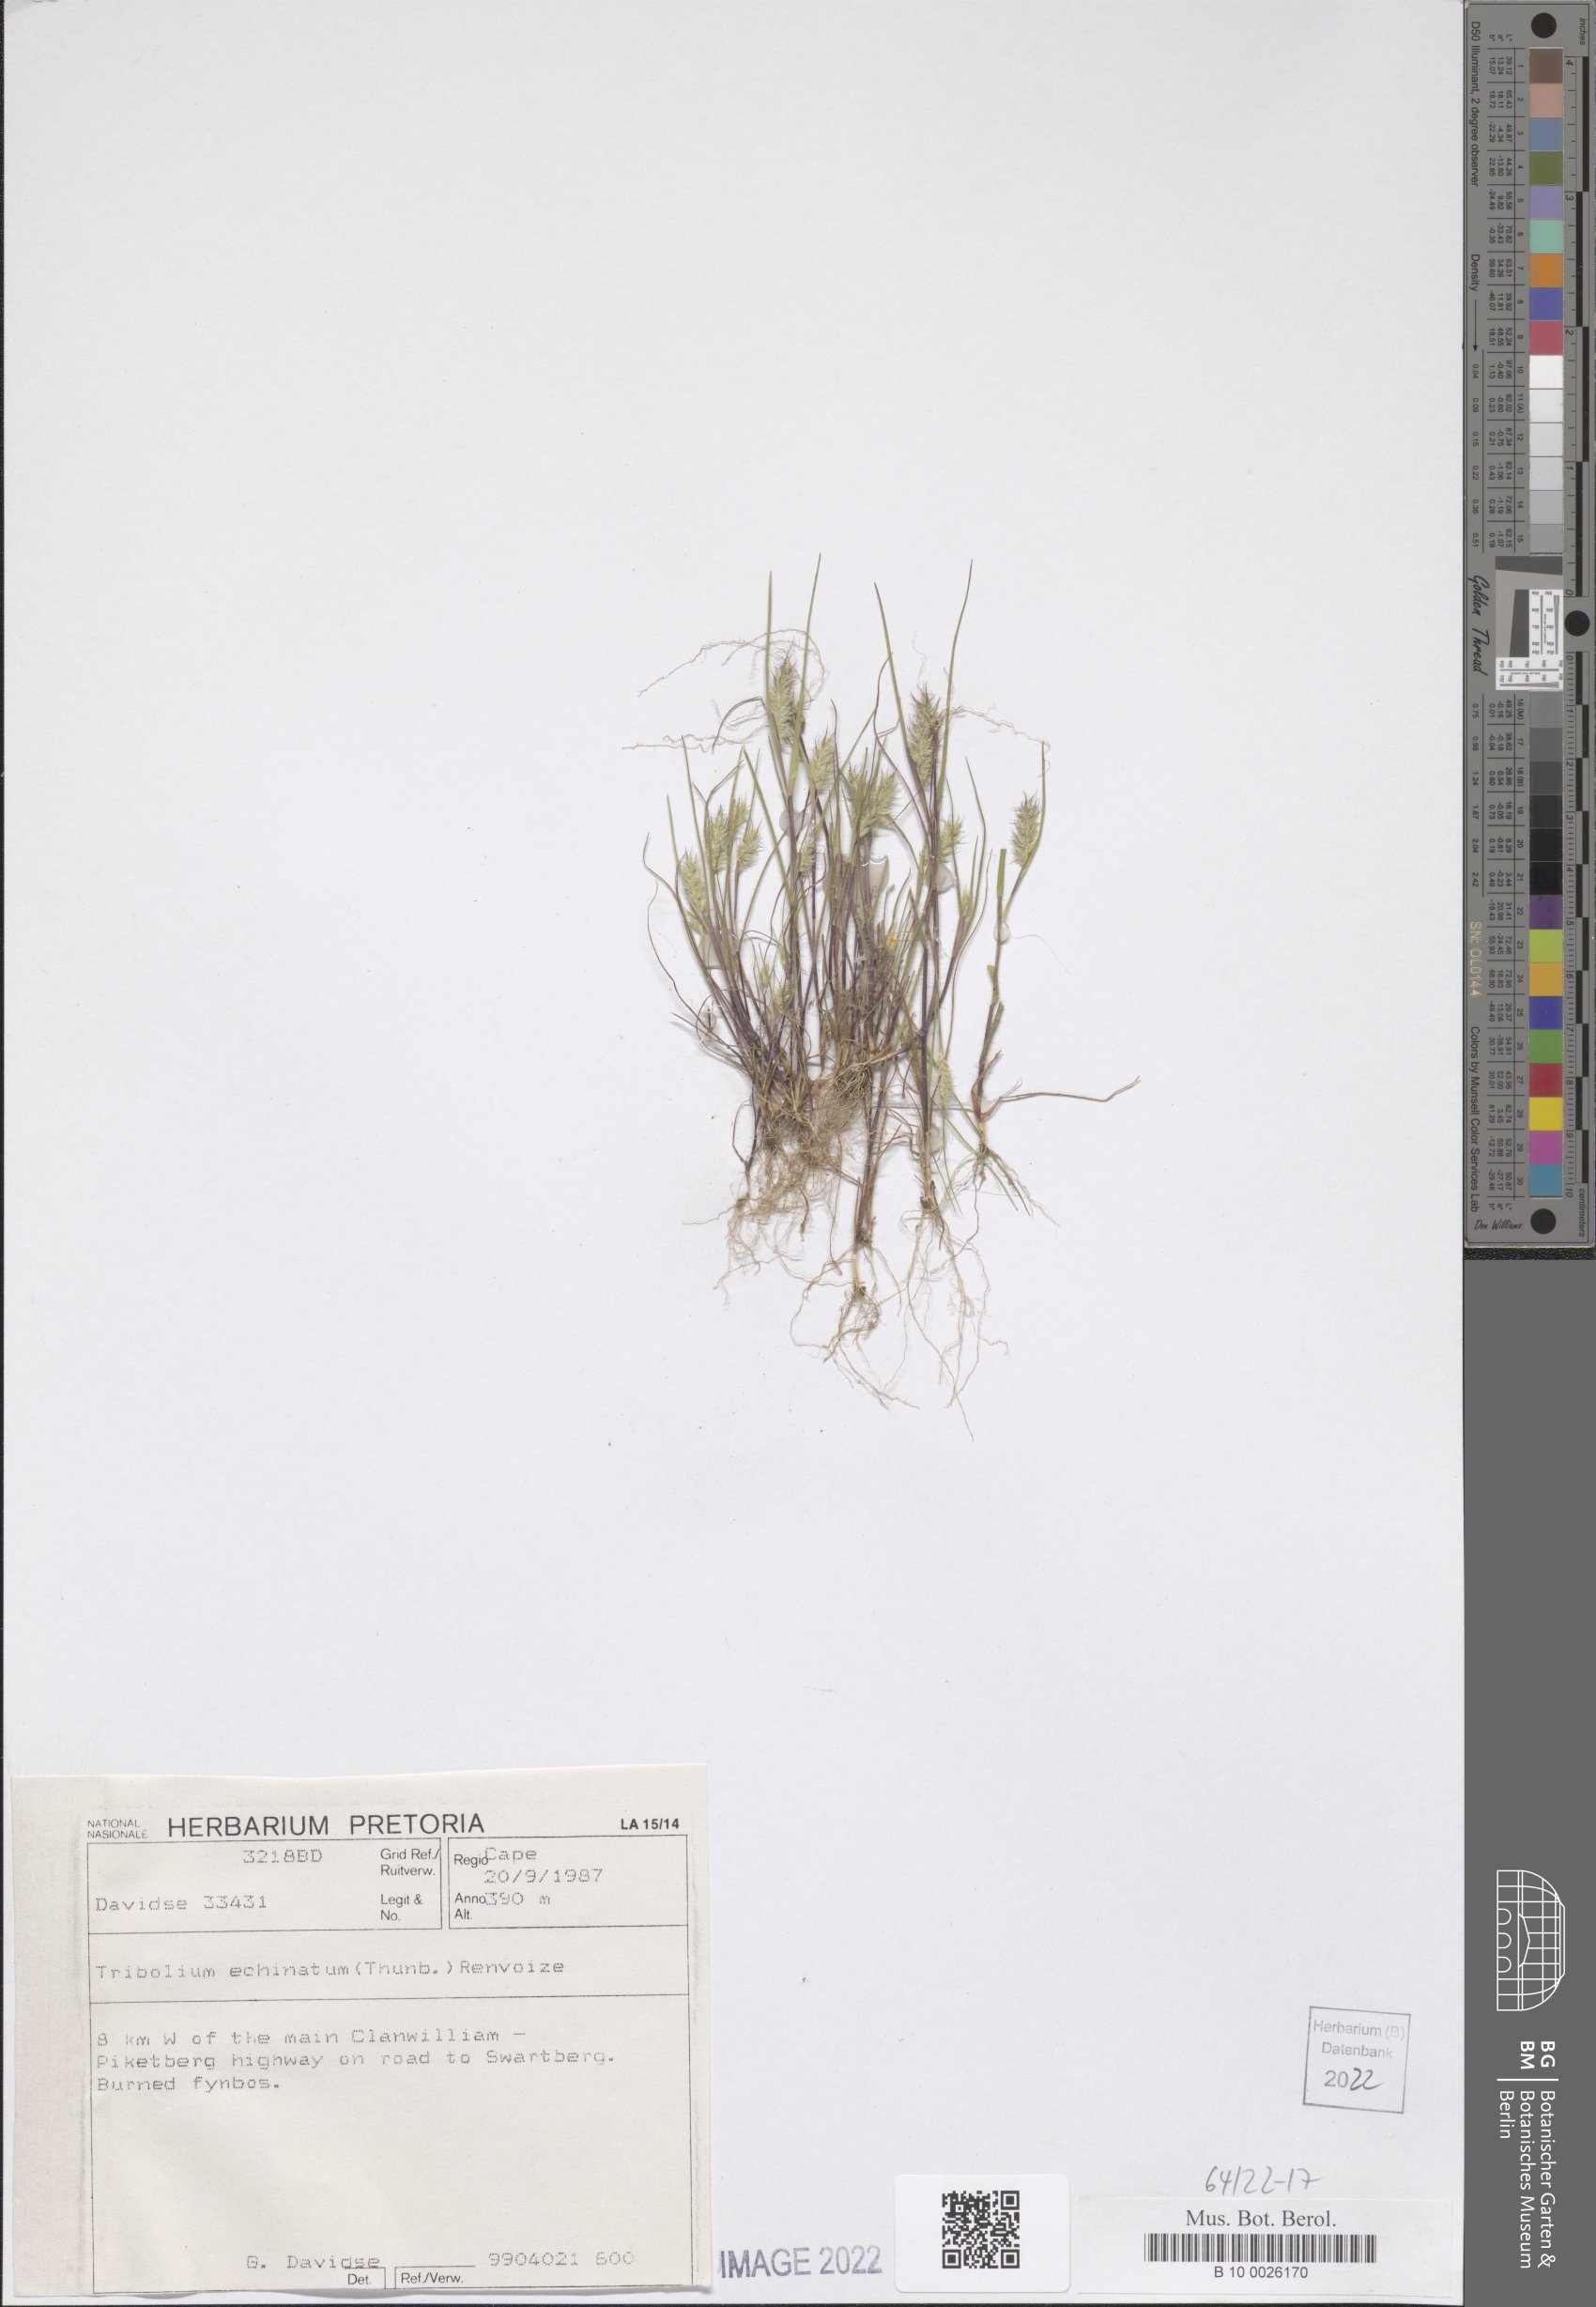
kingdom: Plantae
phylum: Tracheophyta
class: Liliopsida
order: Poales
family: Poaceae
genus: Tribolium
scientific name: Tribolium echinatum
